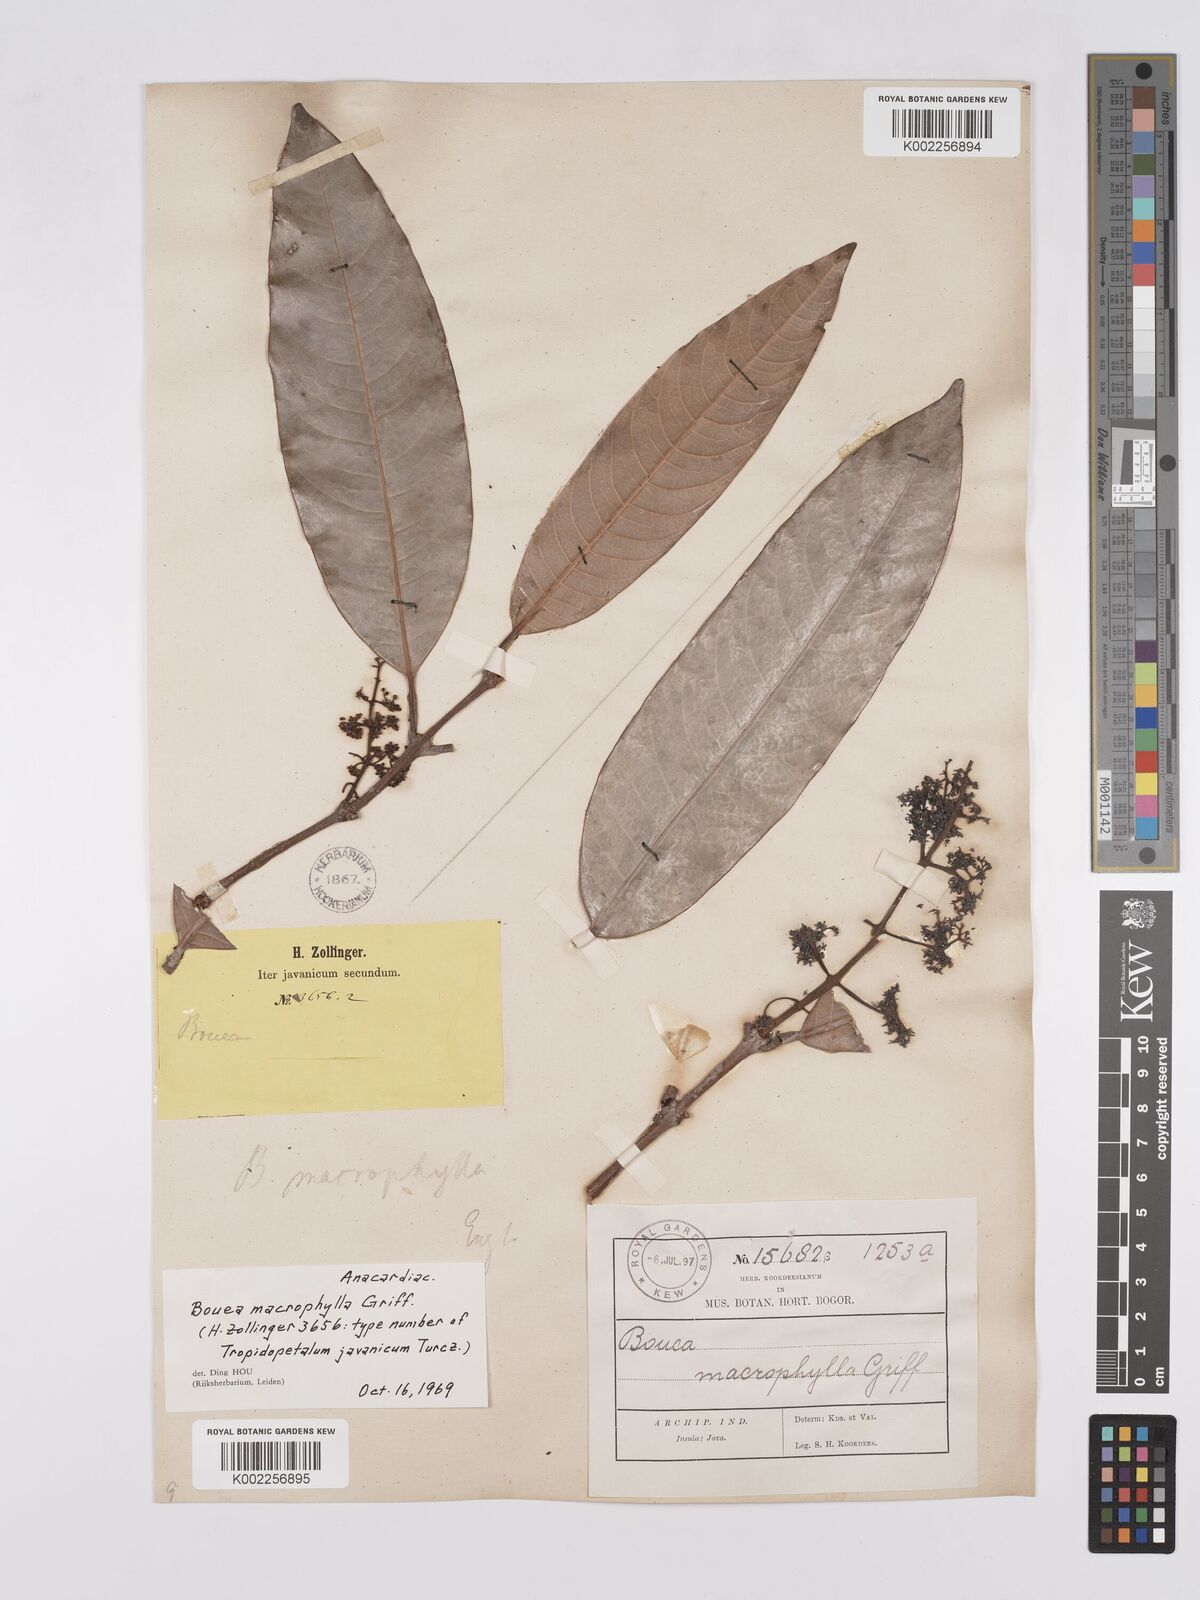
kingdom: Plantae
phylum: Tracheophyta
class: Magnoliopsida
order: Sapindales
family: Anacardiaceae
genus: Bouea
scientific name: Bouea macrophylla
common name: Gandaria
